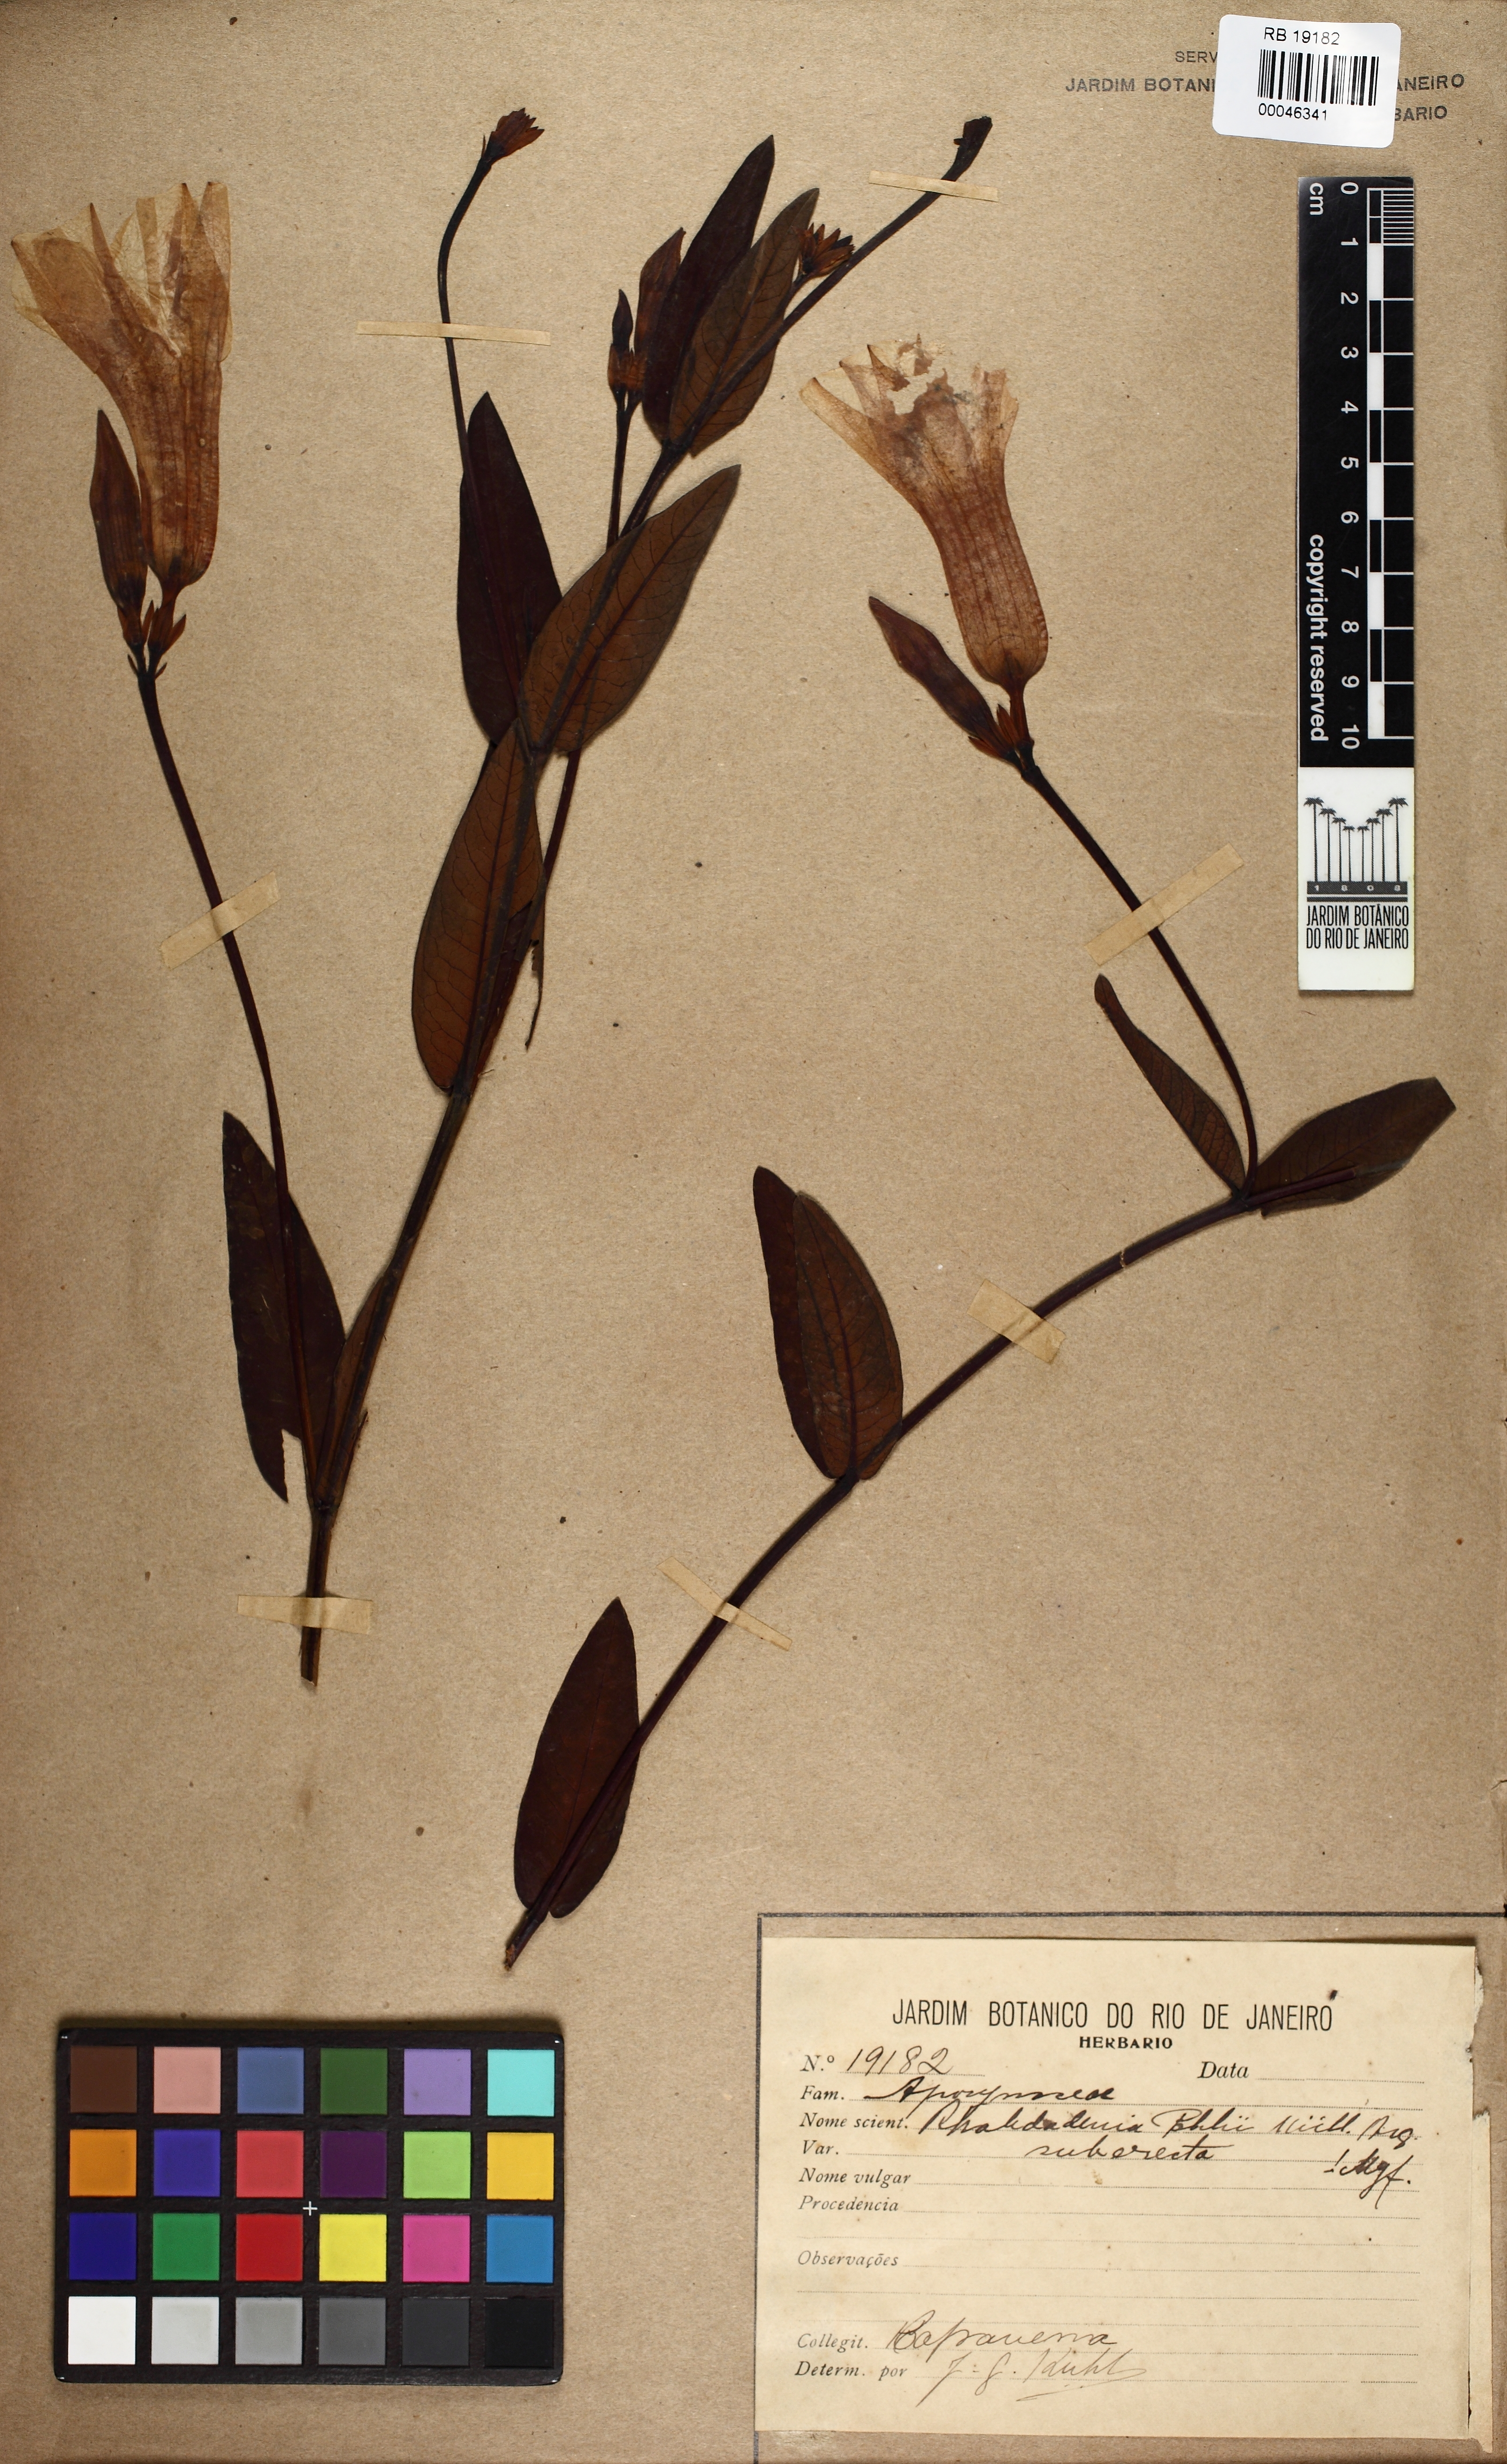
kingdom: Plantae
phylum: Tracheophyta
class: Magnoliopsida
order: Gentianales
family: Apocynaceae
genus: Rhabdadenia
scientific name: Rhabdadenia madida
